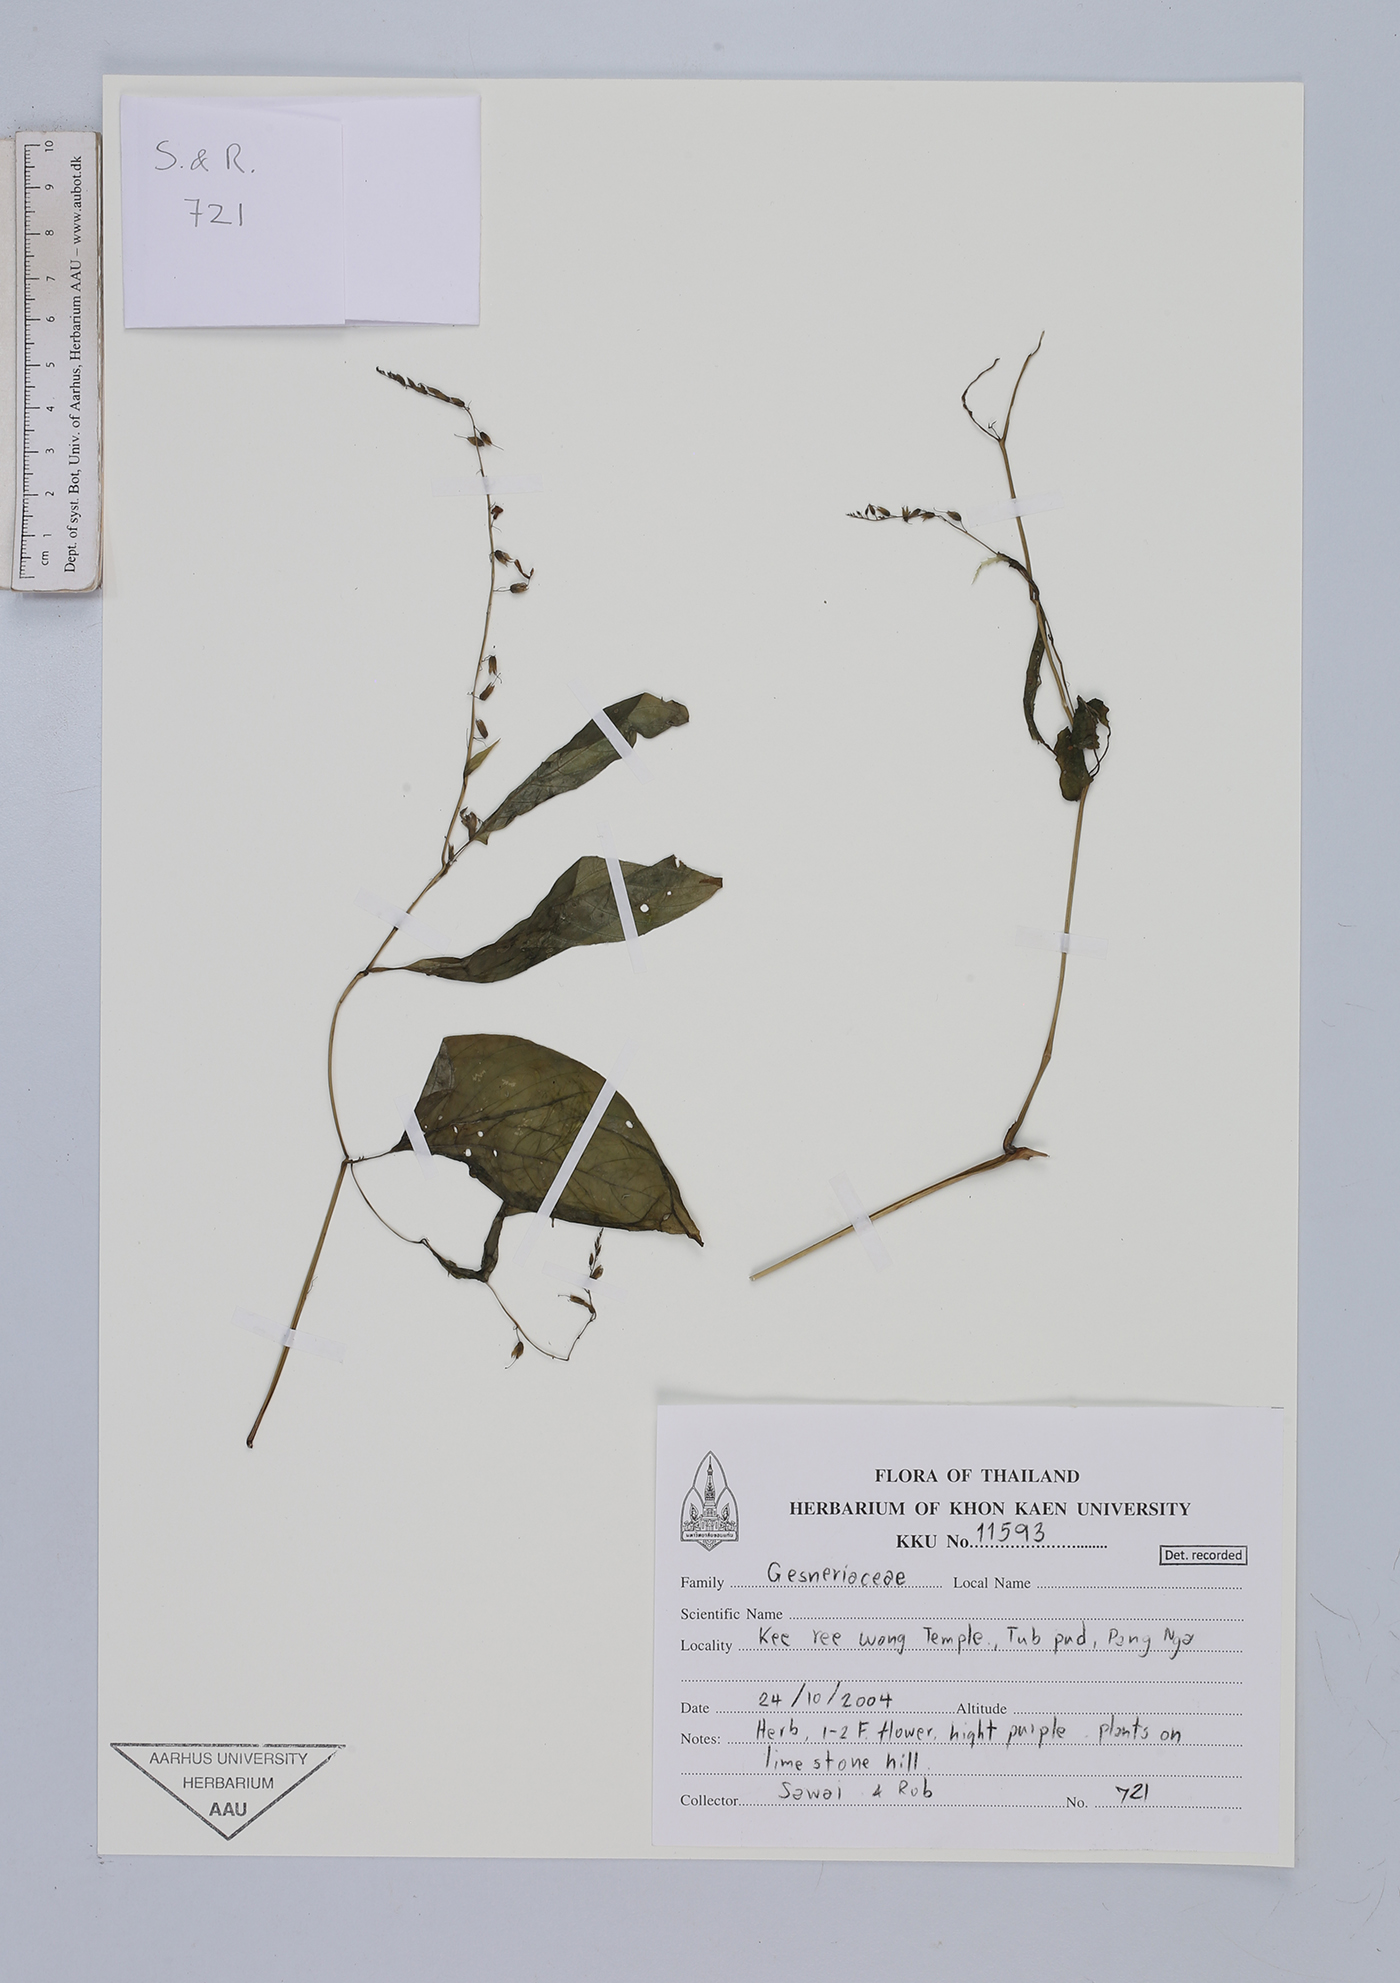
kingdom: Plantae
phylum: Tracheophyta
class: Magnoliopsida
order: Lamiales
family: Gesneriaceae
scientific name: Gesneriaceae
